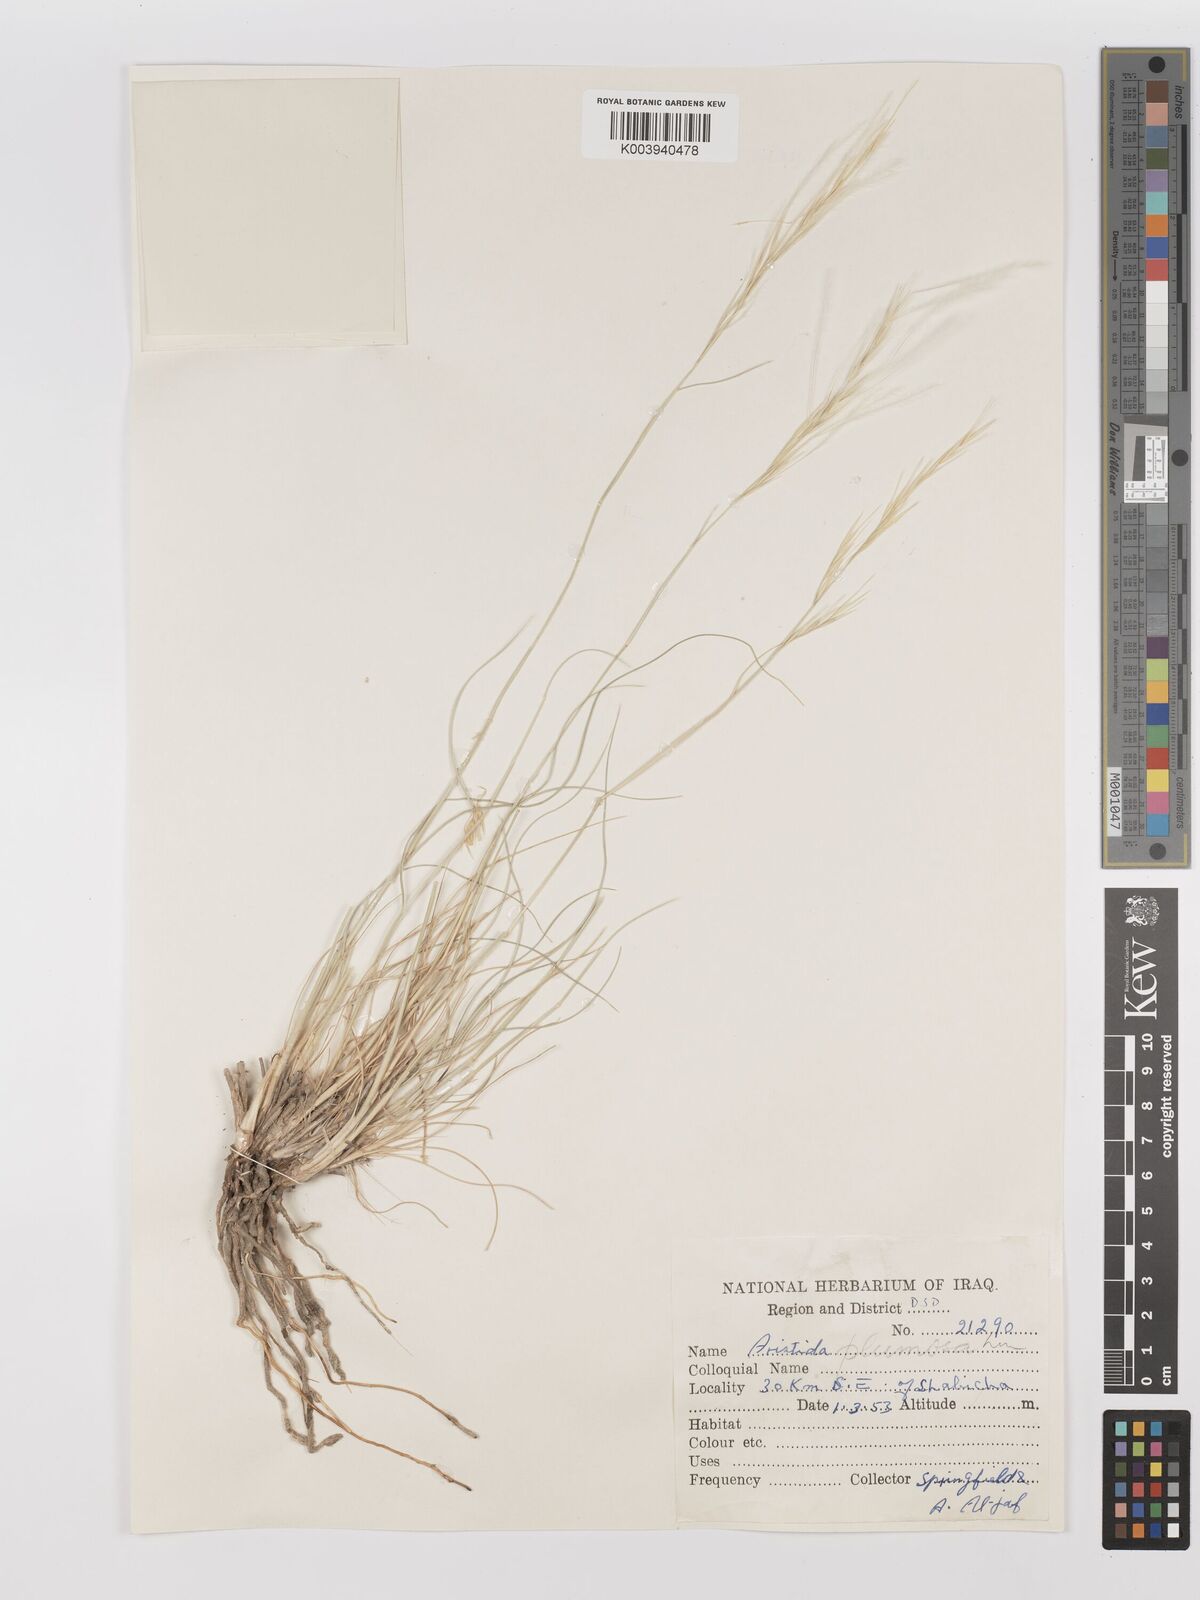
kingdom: Plantae
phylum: Tracheophyta
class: Liliopsida
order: Poales
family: Poaceae
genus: Stipagrostis
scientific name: Stipagrostis plumosa
